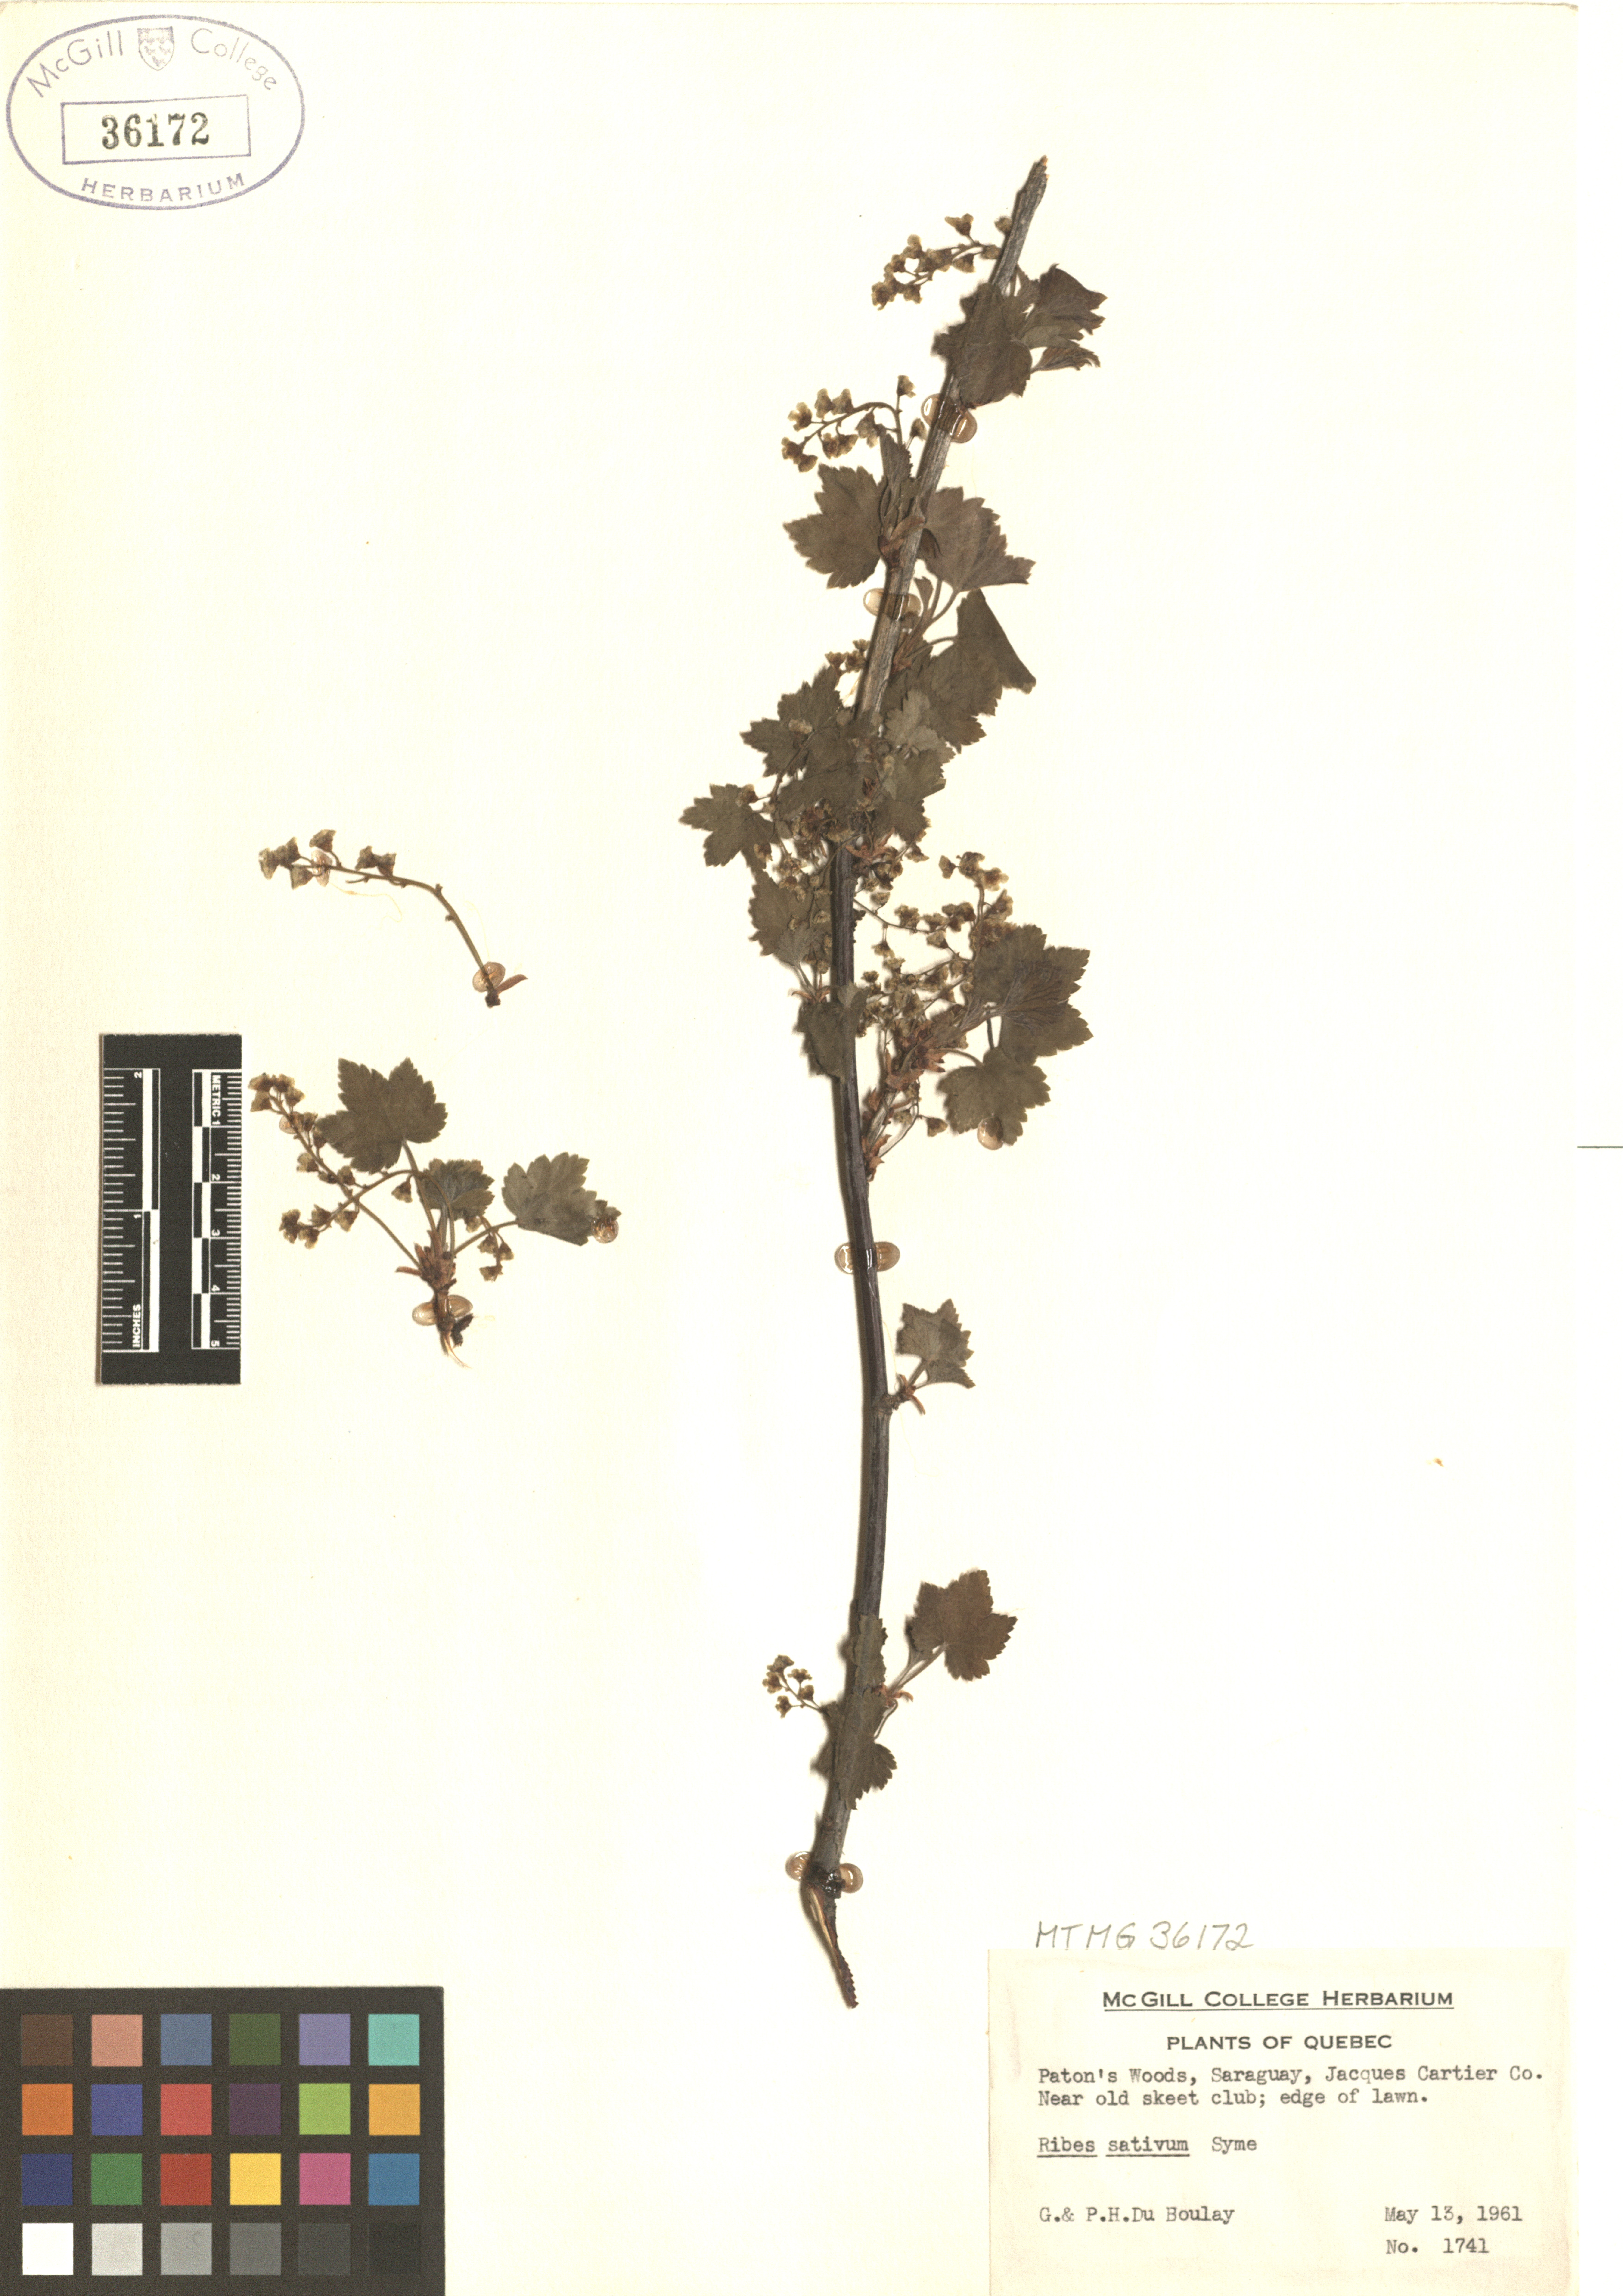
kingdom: Plantae
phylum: Tracheophyta
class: Magnoliopsida
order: Saxifragales
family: Grossulariaceae
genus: Ribes
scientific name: Ribes rubrum
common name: Red currant
